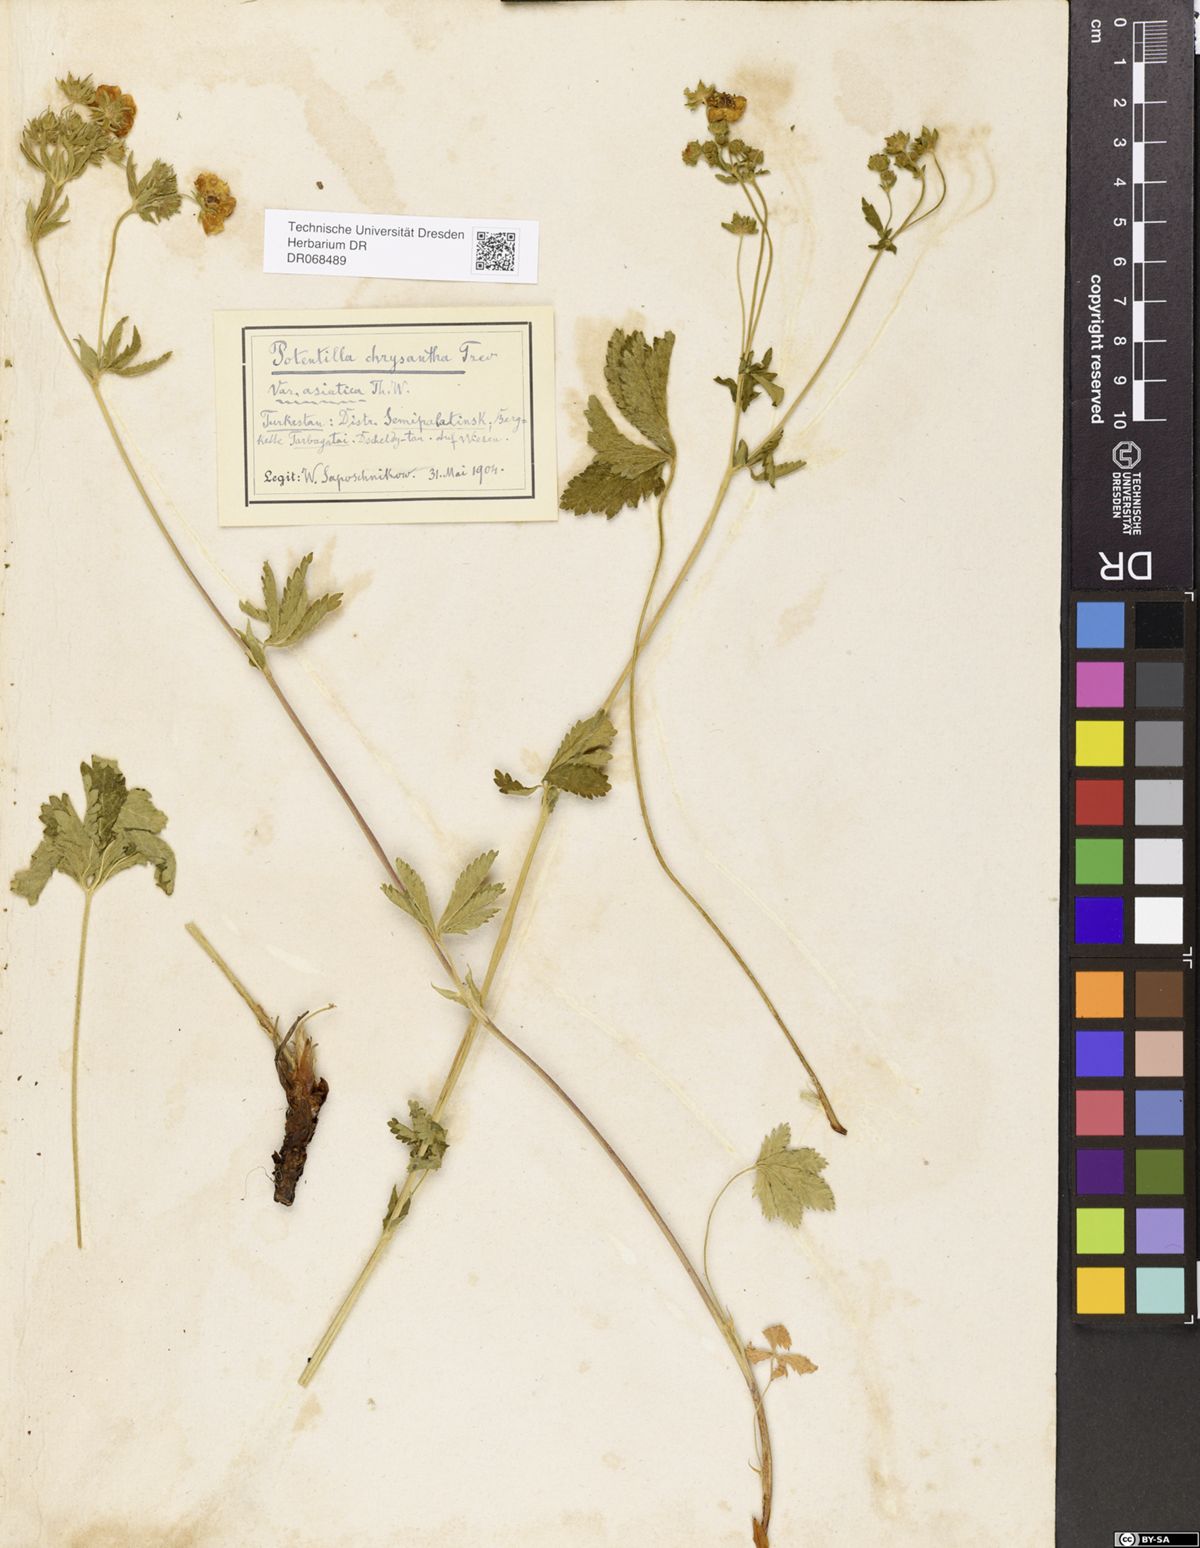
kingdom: Plantae
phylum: Tracheophyta
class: Magnoliopsida
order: Rosales
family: Rosaceae
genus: Potentilla
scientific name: Potentilla asiatica
